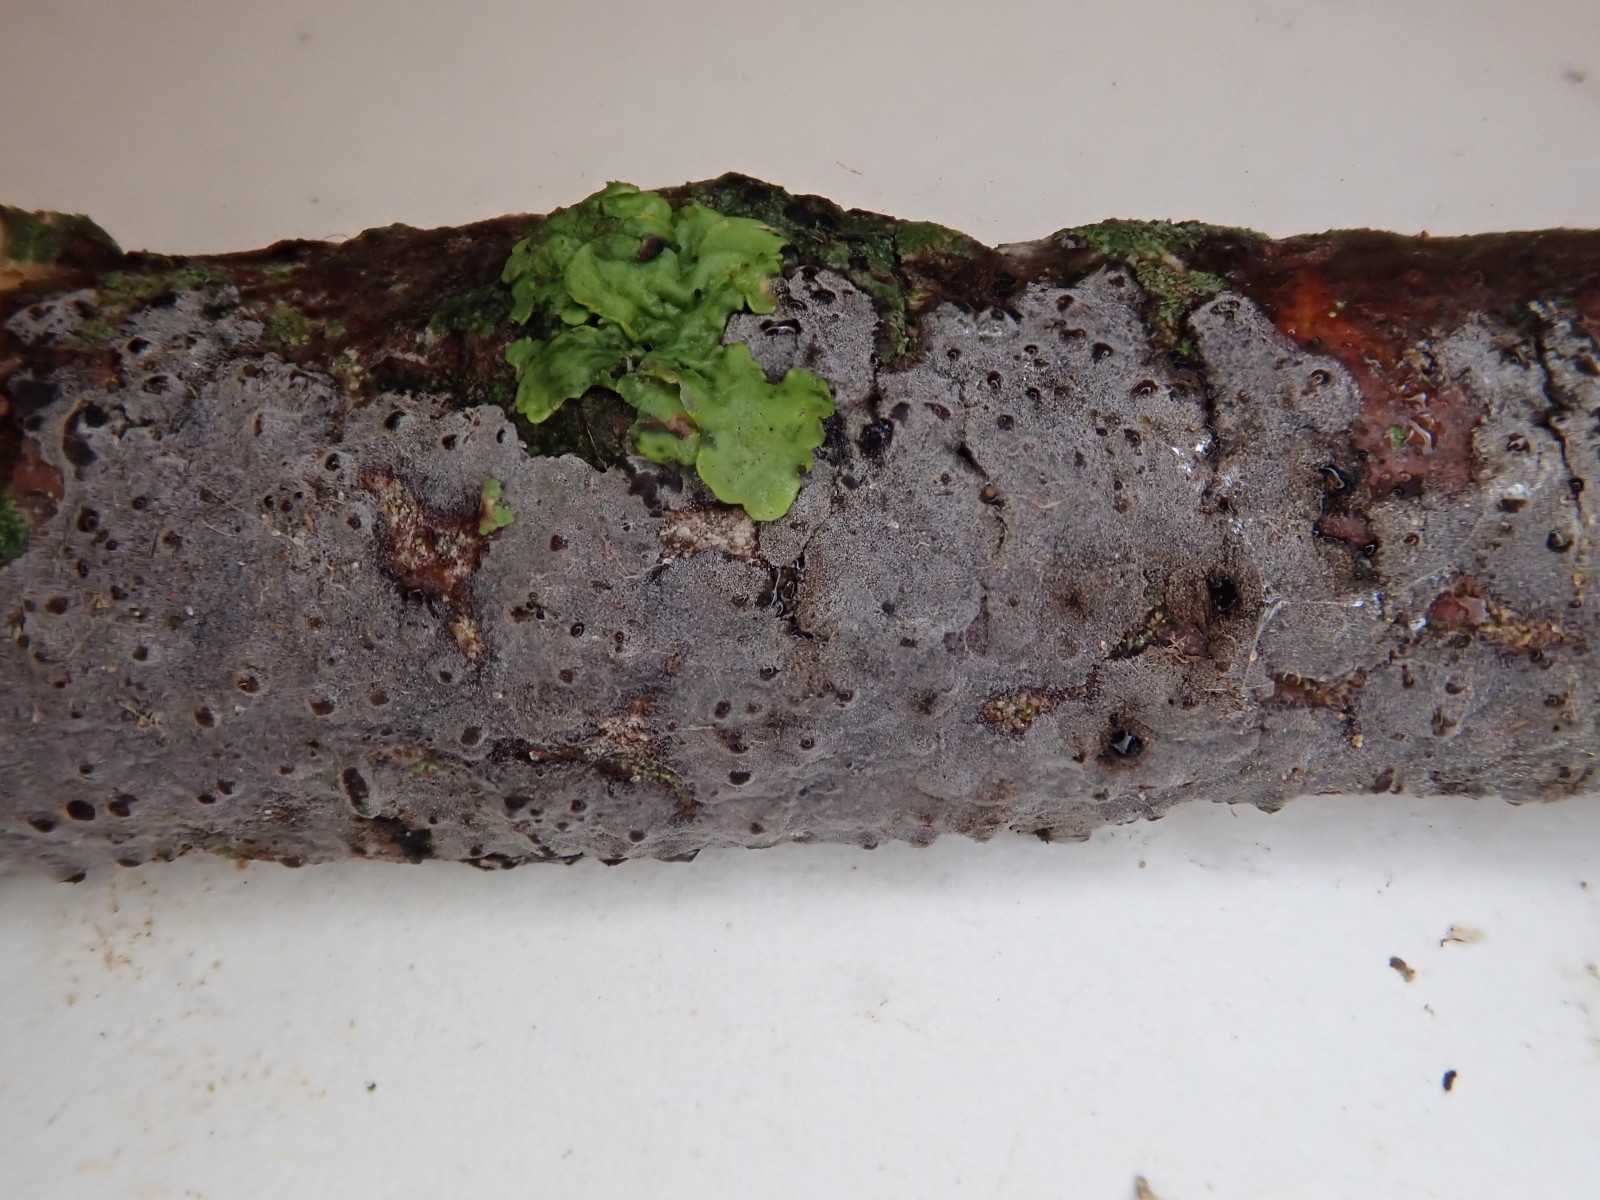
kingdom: Fungi
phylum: Basidiomycota
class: Agaricomycetes
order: Russulales
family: Peniophoraceae
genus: Peniophora
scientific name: Peniophora cinerea
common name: grå voksskind
